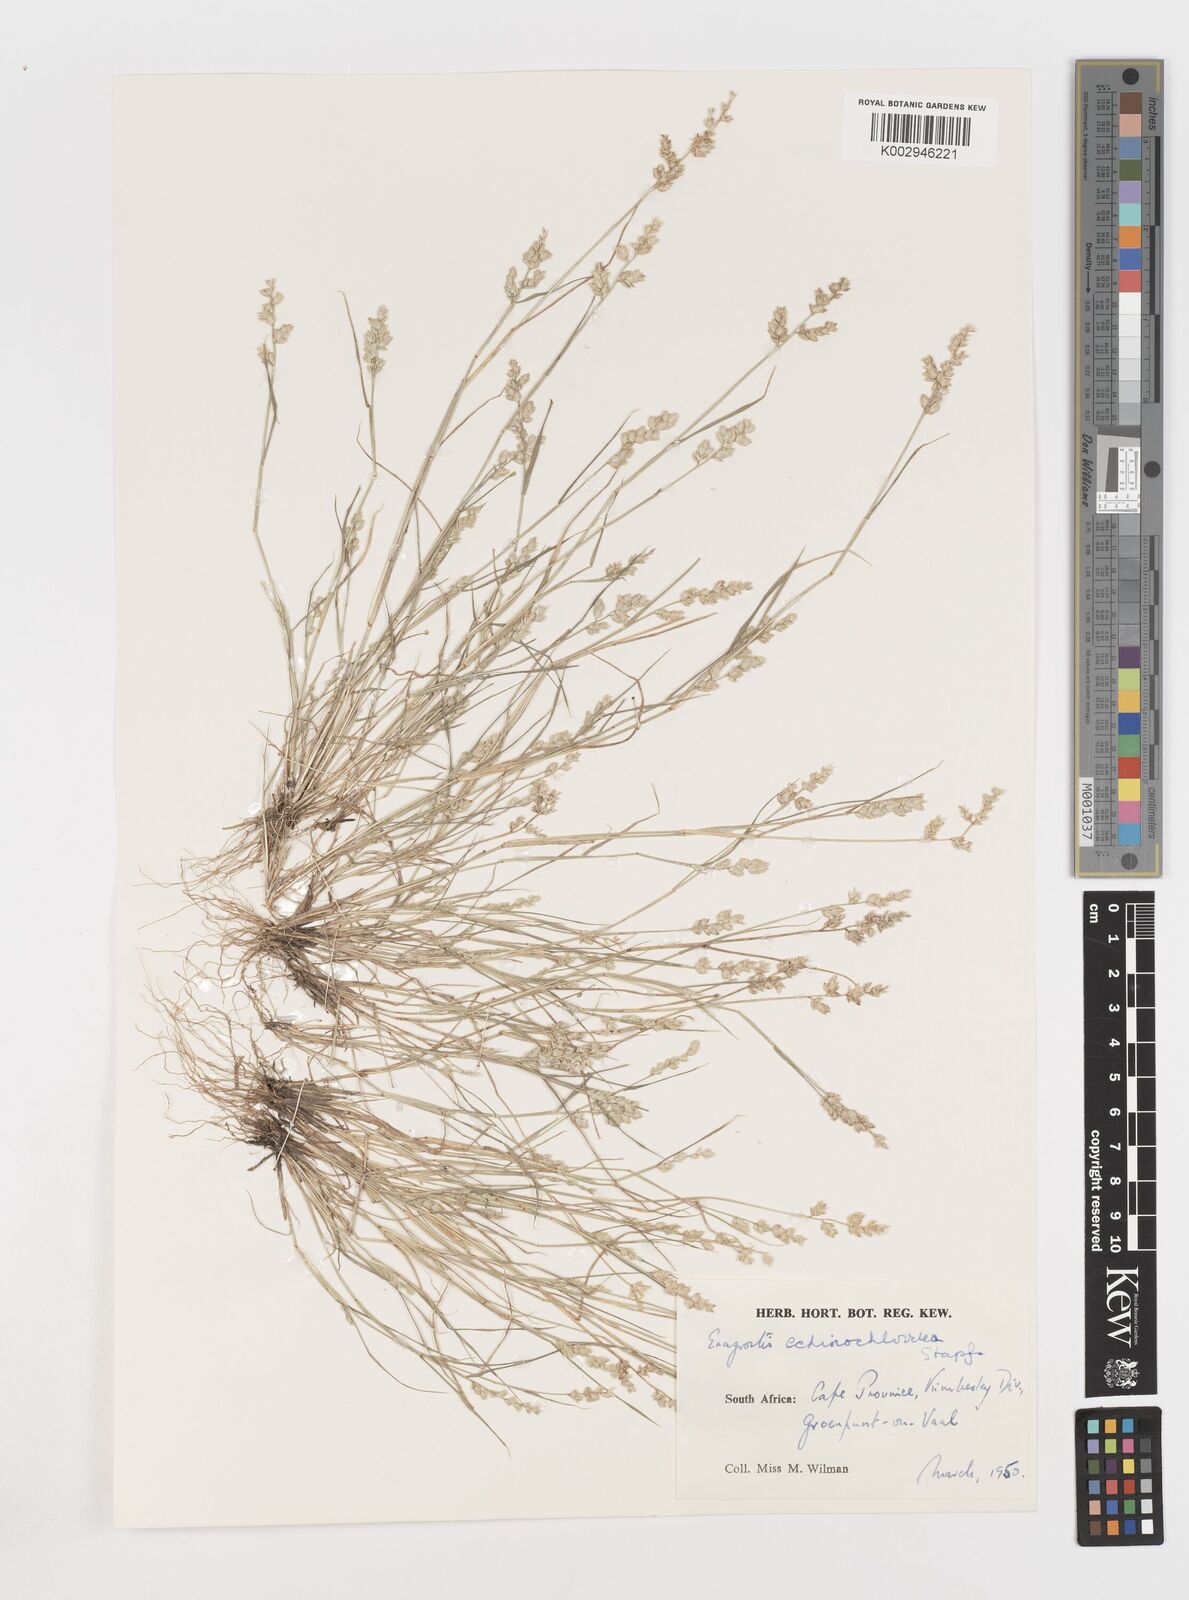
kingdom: Plantae
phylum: Tracheophyta
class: Liliopsida
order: Poales
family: Poaceae
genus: Eragrostis
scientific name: Eragrostis echinochloidea
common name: African lovegrass
